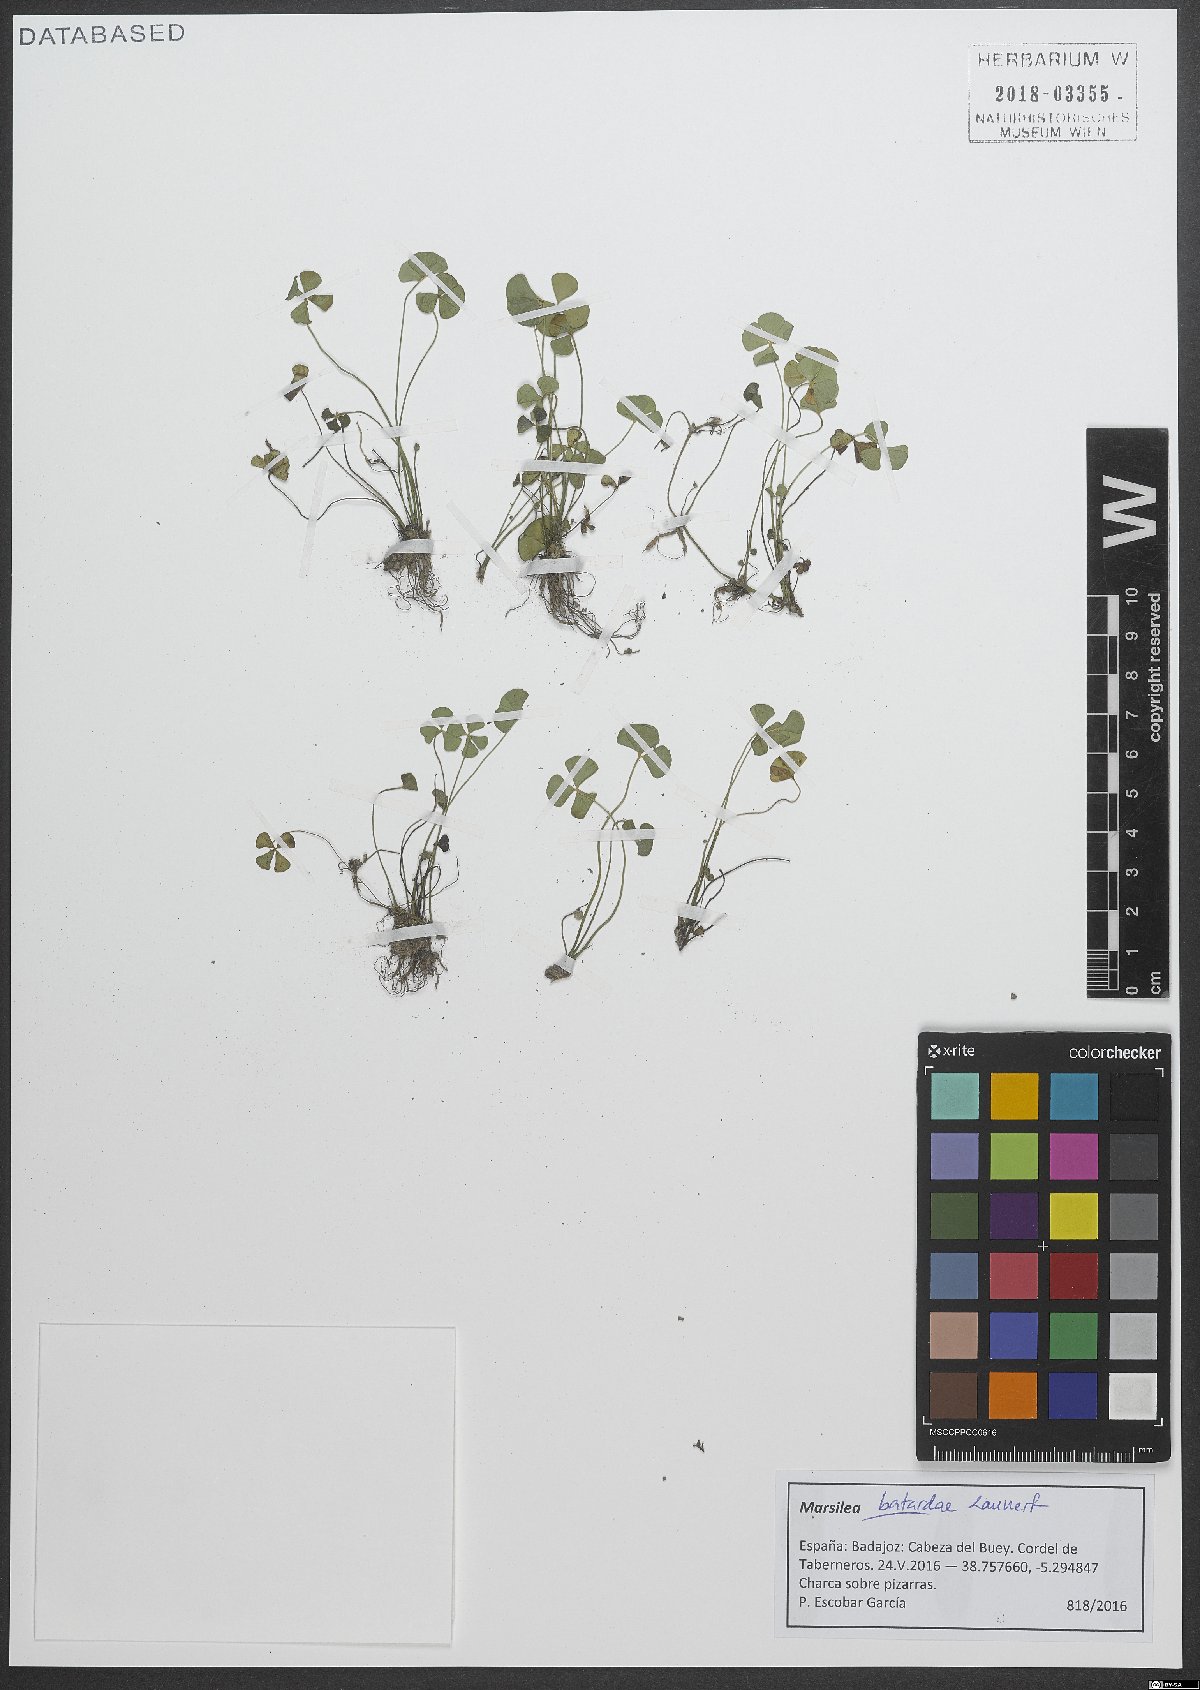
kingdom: Plantae
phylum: Tracheophyta
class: Polypodiopsida
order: Salviniales
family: Marsileaceae
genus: Marsilea
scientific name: Marsilea batardae
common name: Lusitanian water clover
